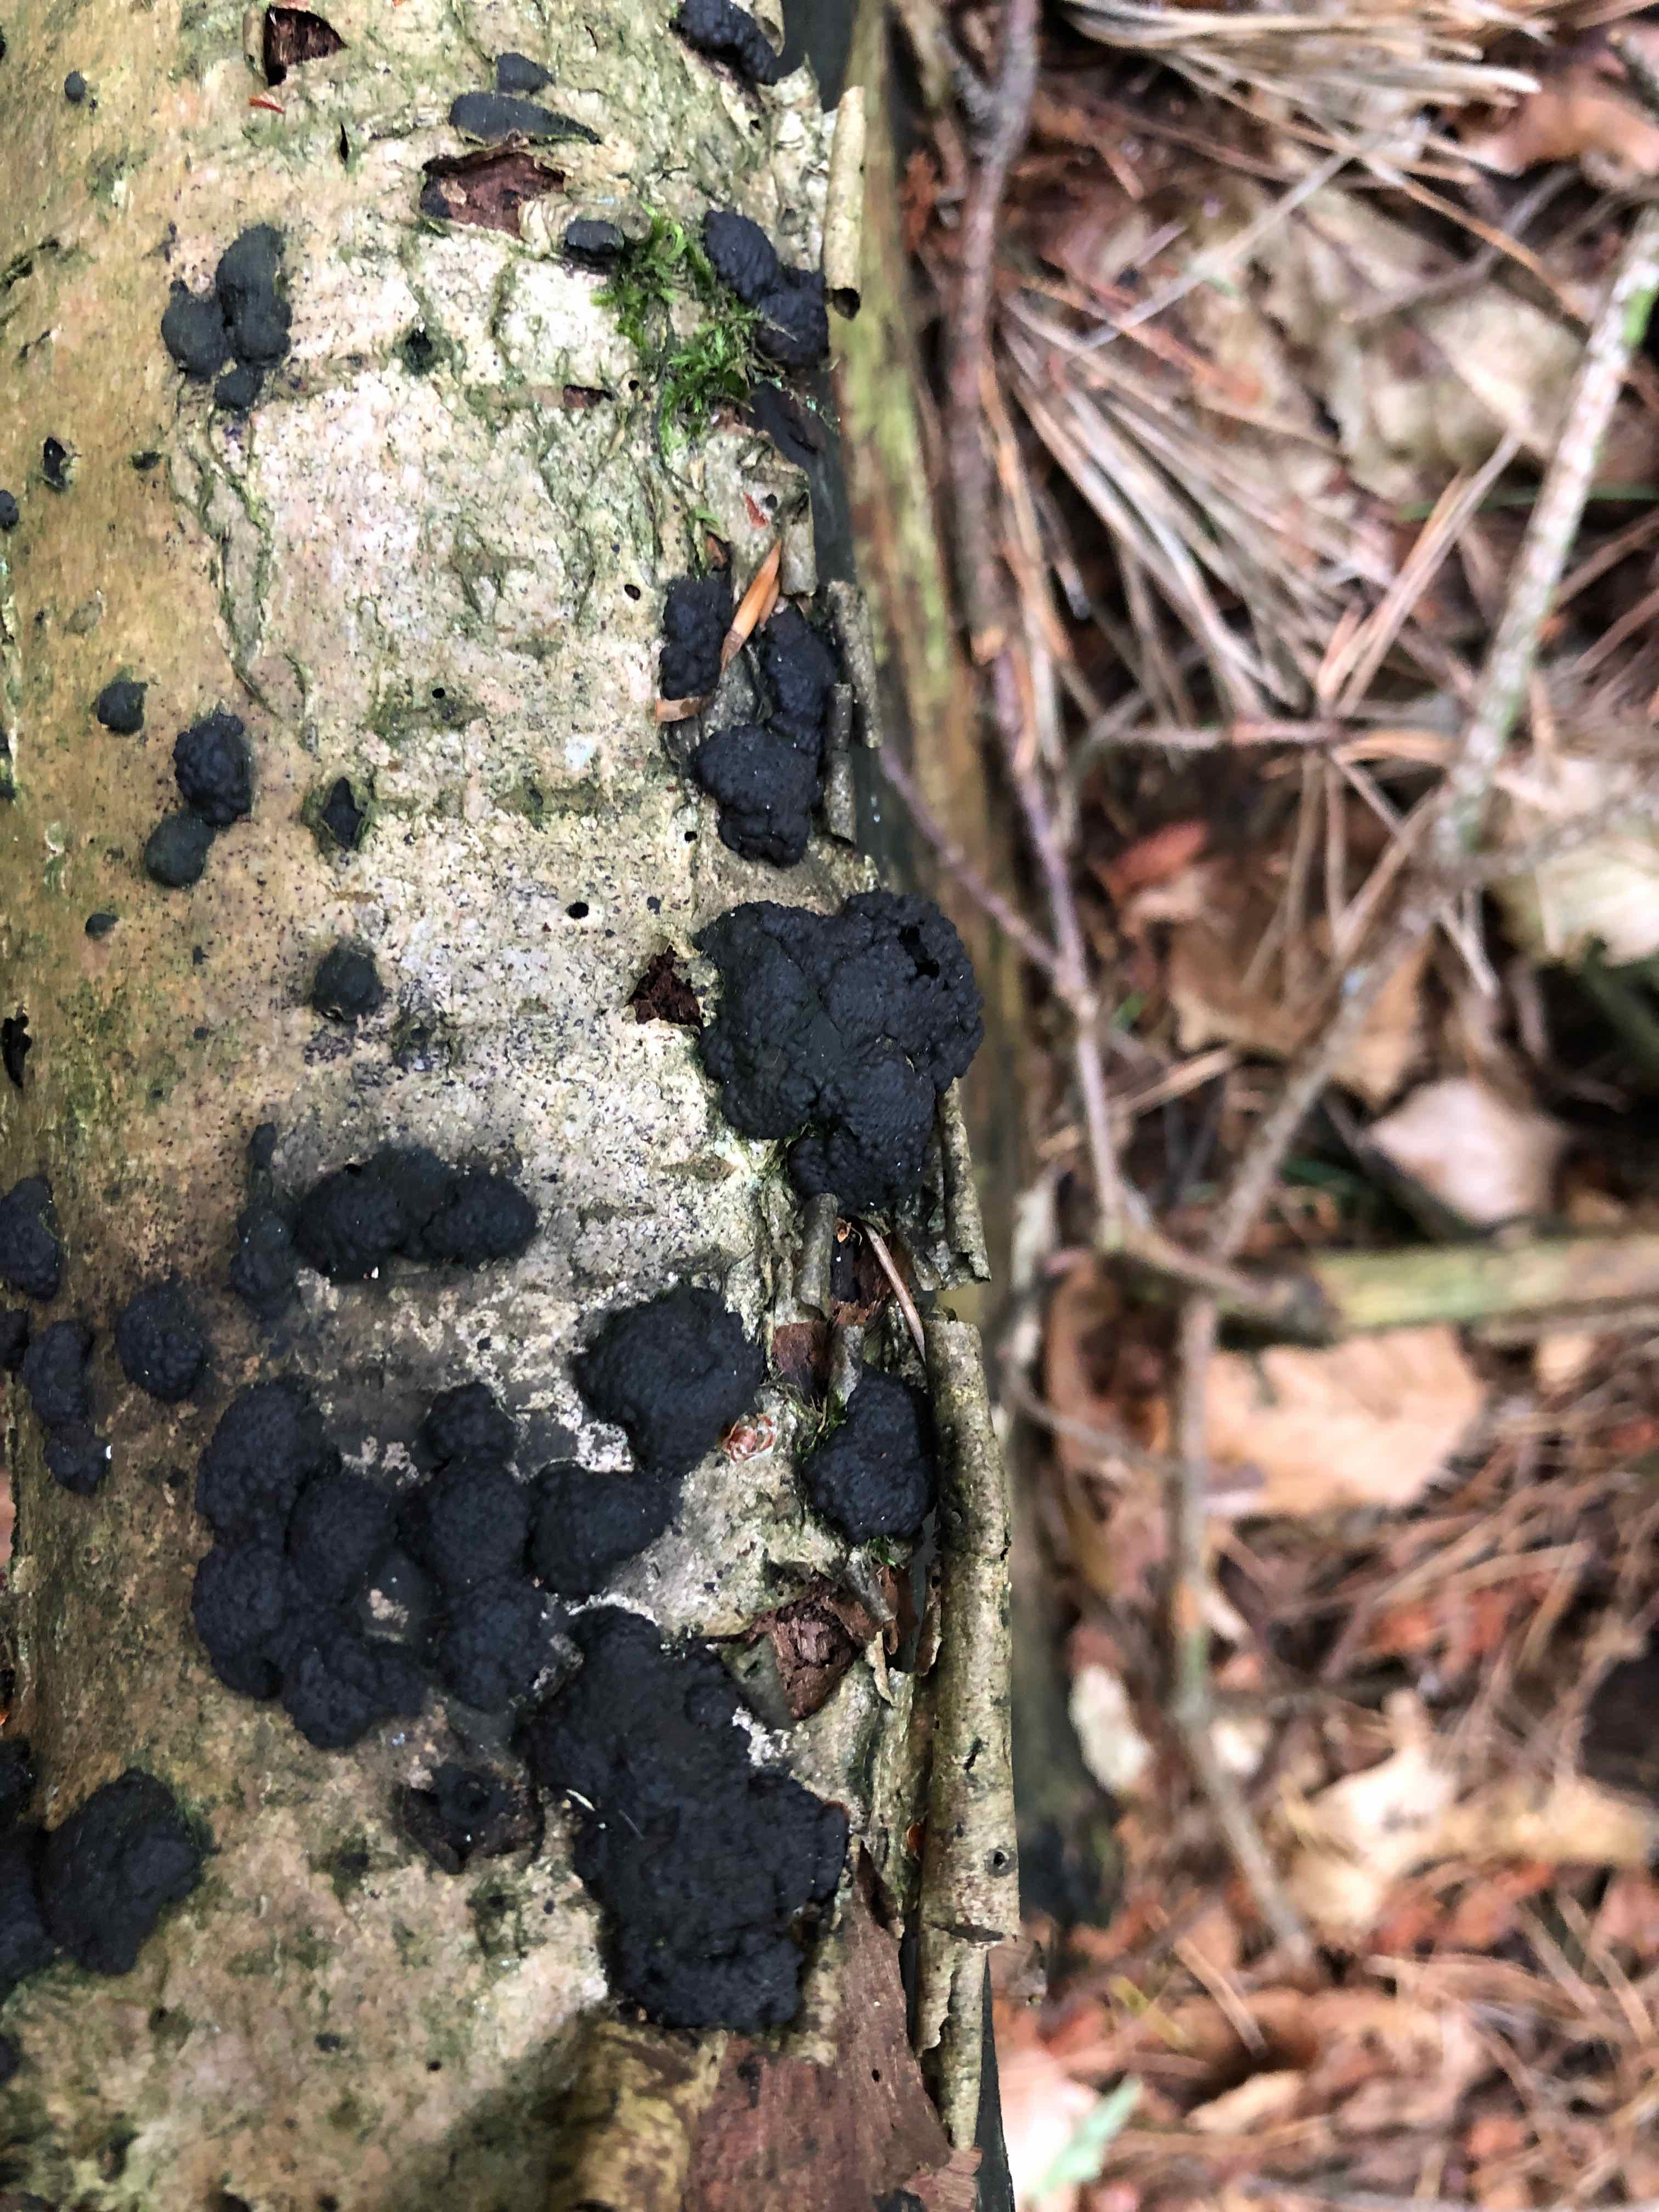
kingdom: Fungi
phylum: Ascomycota
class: Sordariomycetes
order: Xylariales
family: Hypoxylaceae
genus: Jackrogersella
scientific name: Jackrogersella
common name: kulbær
